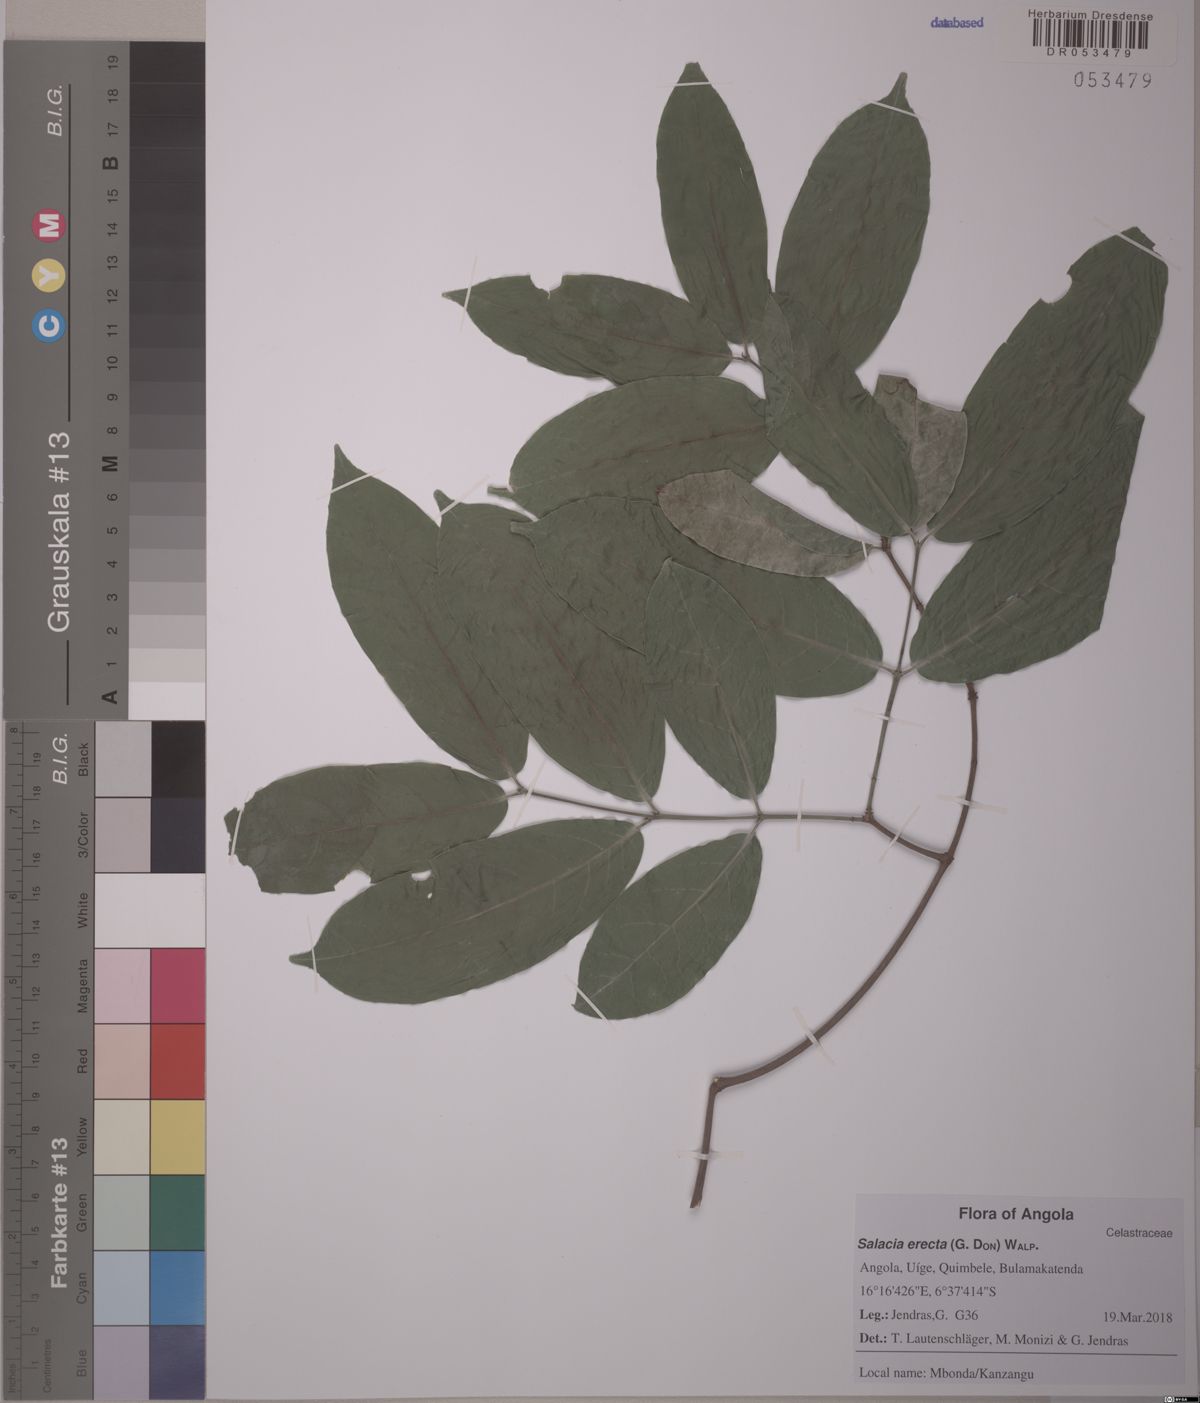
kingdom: Plantae
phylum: Tracheophyta
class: Magnoliopsida
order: Celastrales
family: Celastraceae
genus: Salacia
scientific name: Salacia erecta
